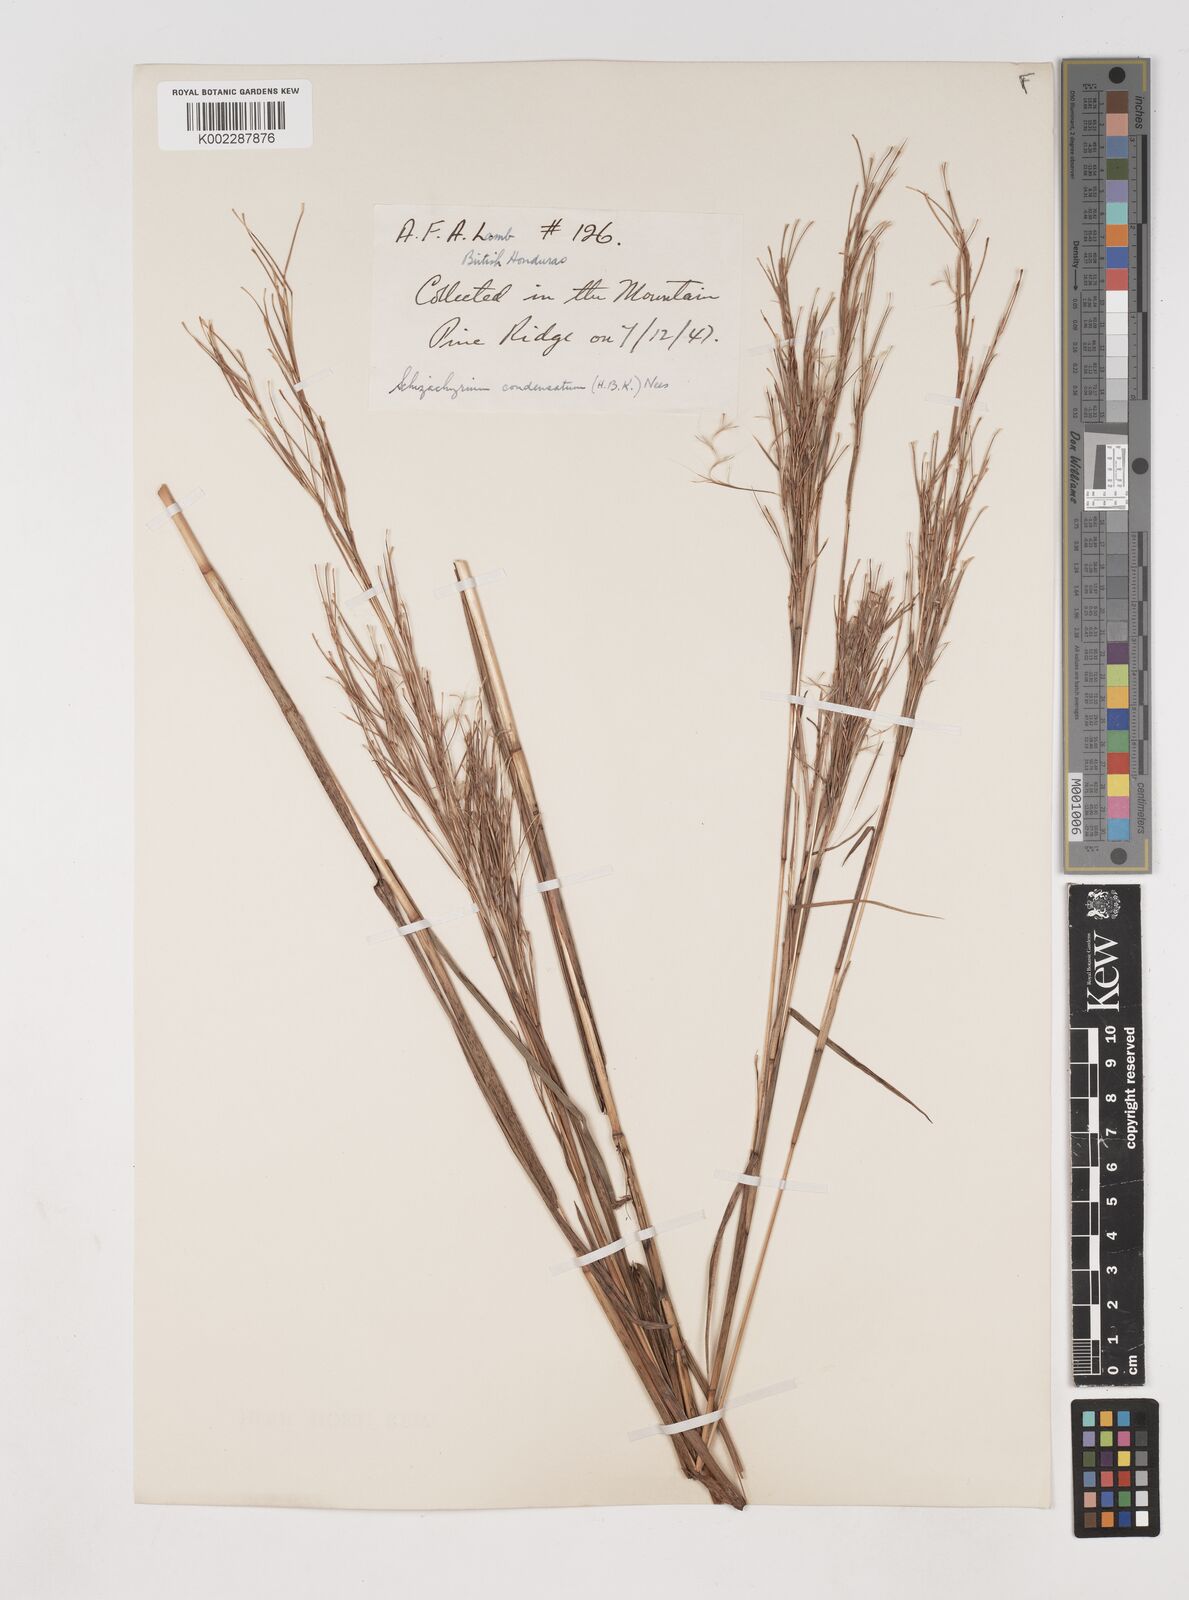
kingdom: Plantae
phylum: Tracheophyta
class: Liliopsida
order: Poales
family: Poaceae
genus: Schizachyrium
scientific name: Schizachyrium condensatum
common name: Bush beardgrass
